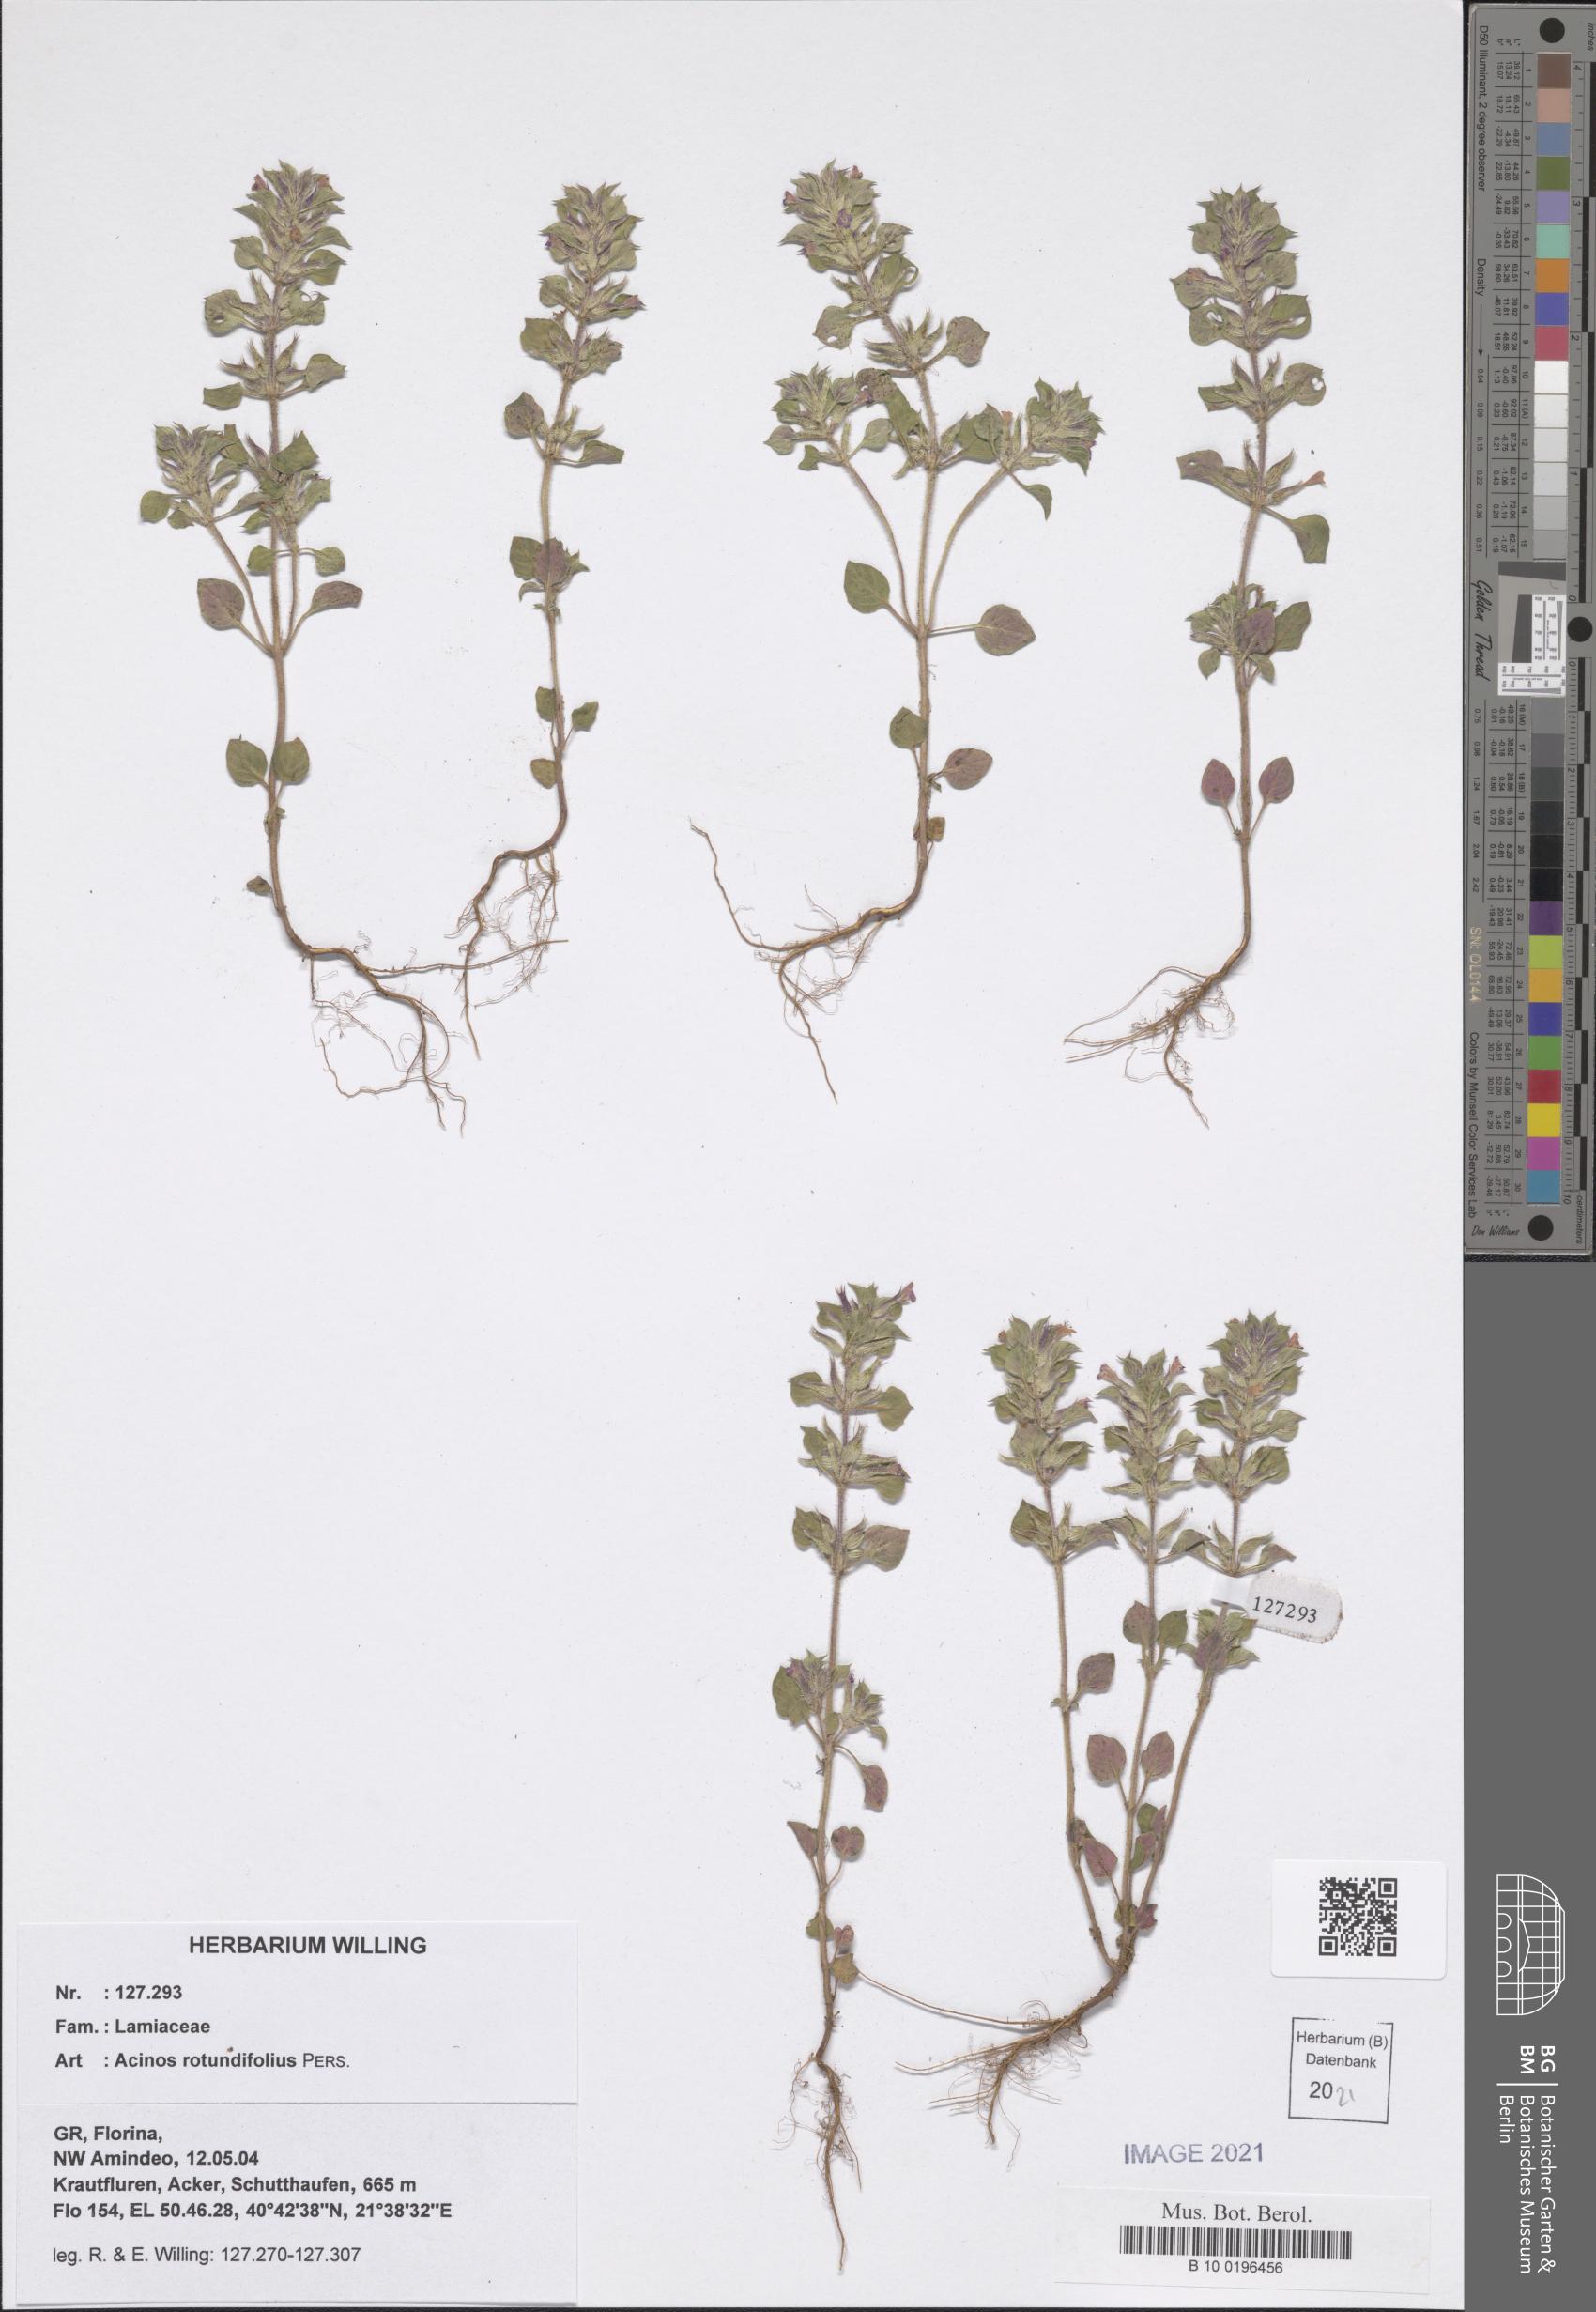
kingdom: Plantae
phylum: Tracheophyta
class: Magnoliopsida
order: Lamiales
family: Lamiaceae
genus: Clinopodium
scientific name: Clinopodium graveolens
